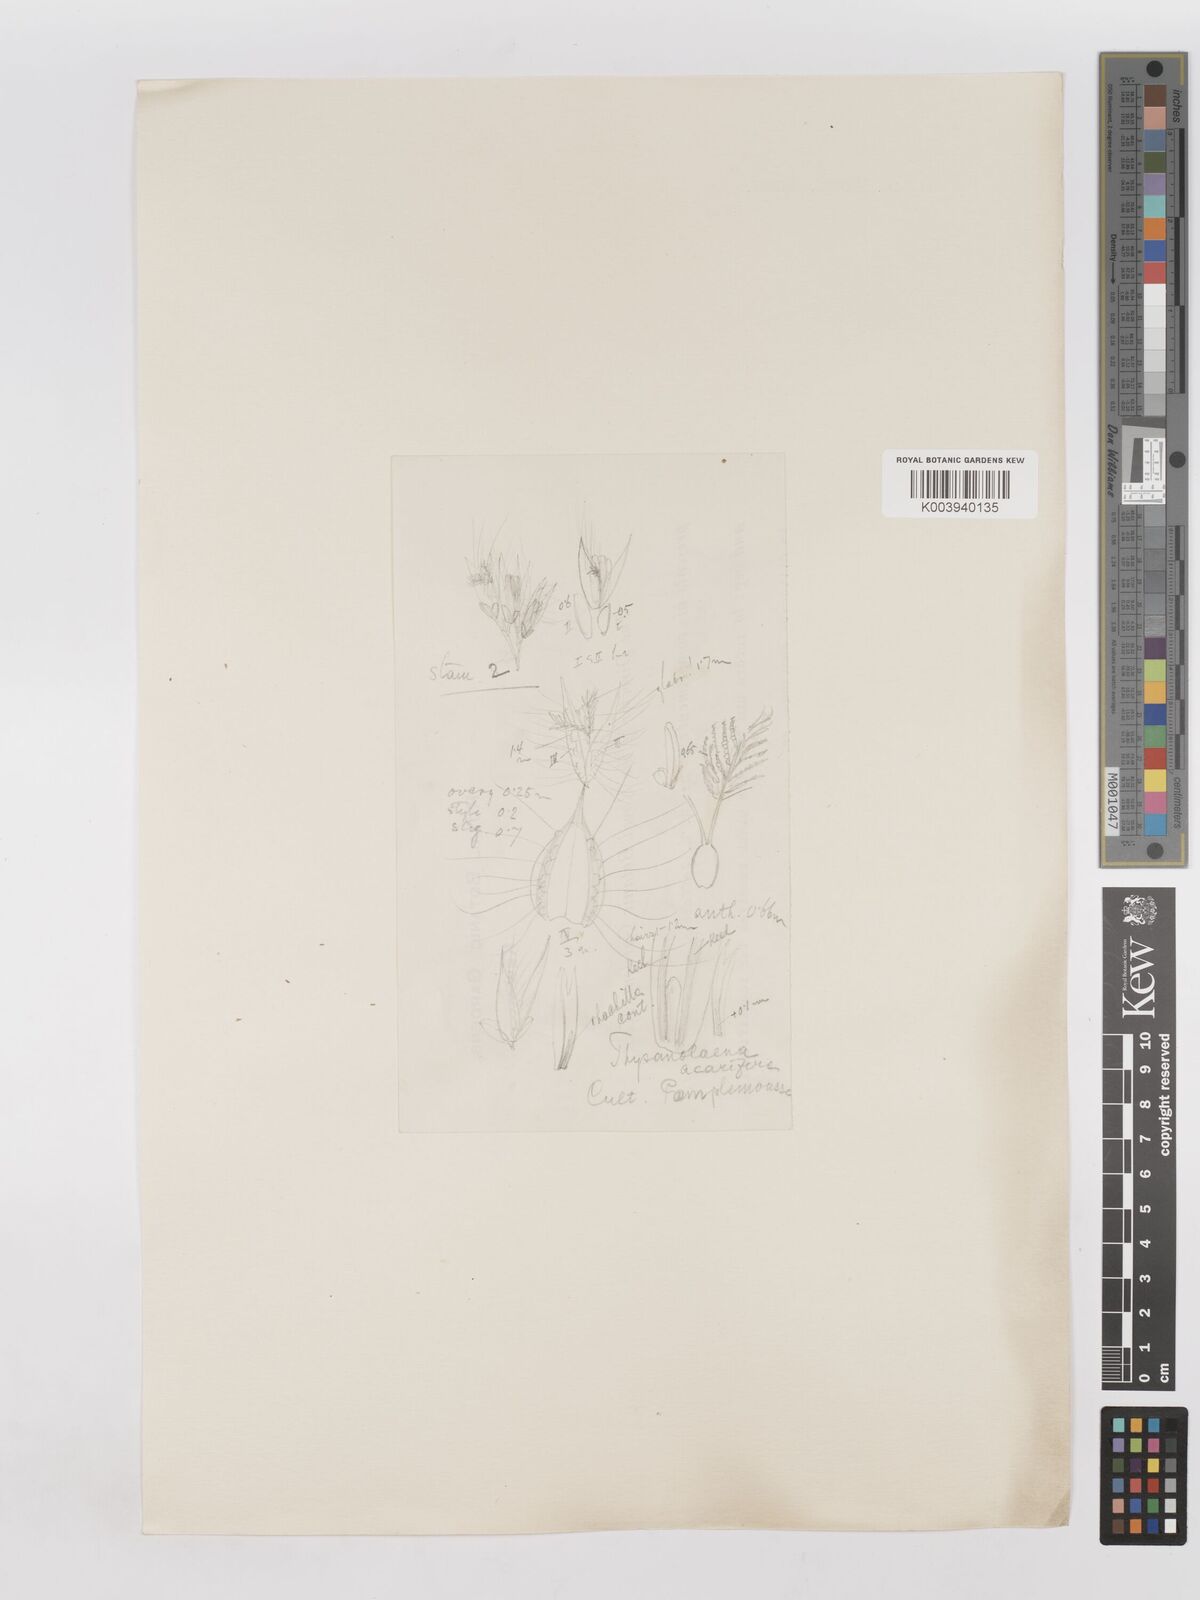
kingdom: Plantae
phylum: Tracheophyta
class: Liliopsida
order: Poales
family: Poaceae
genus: Thysanolaena
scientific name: Thysanolaena latifolia
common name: Tiger grass
